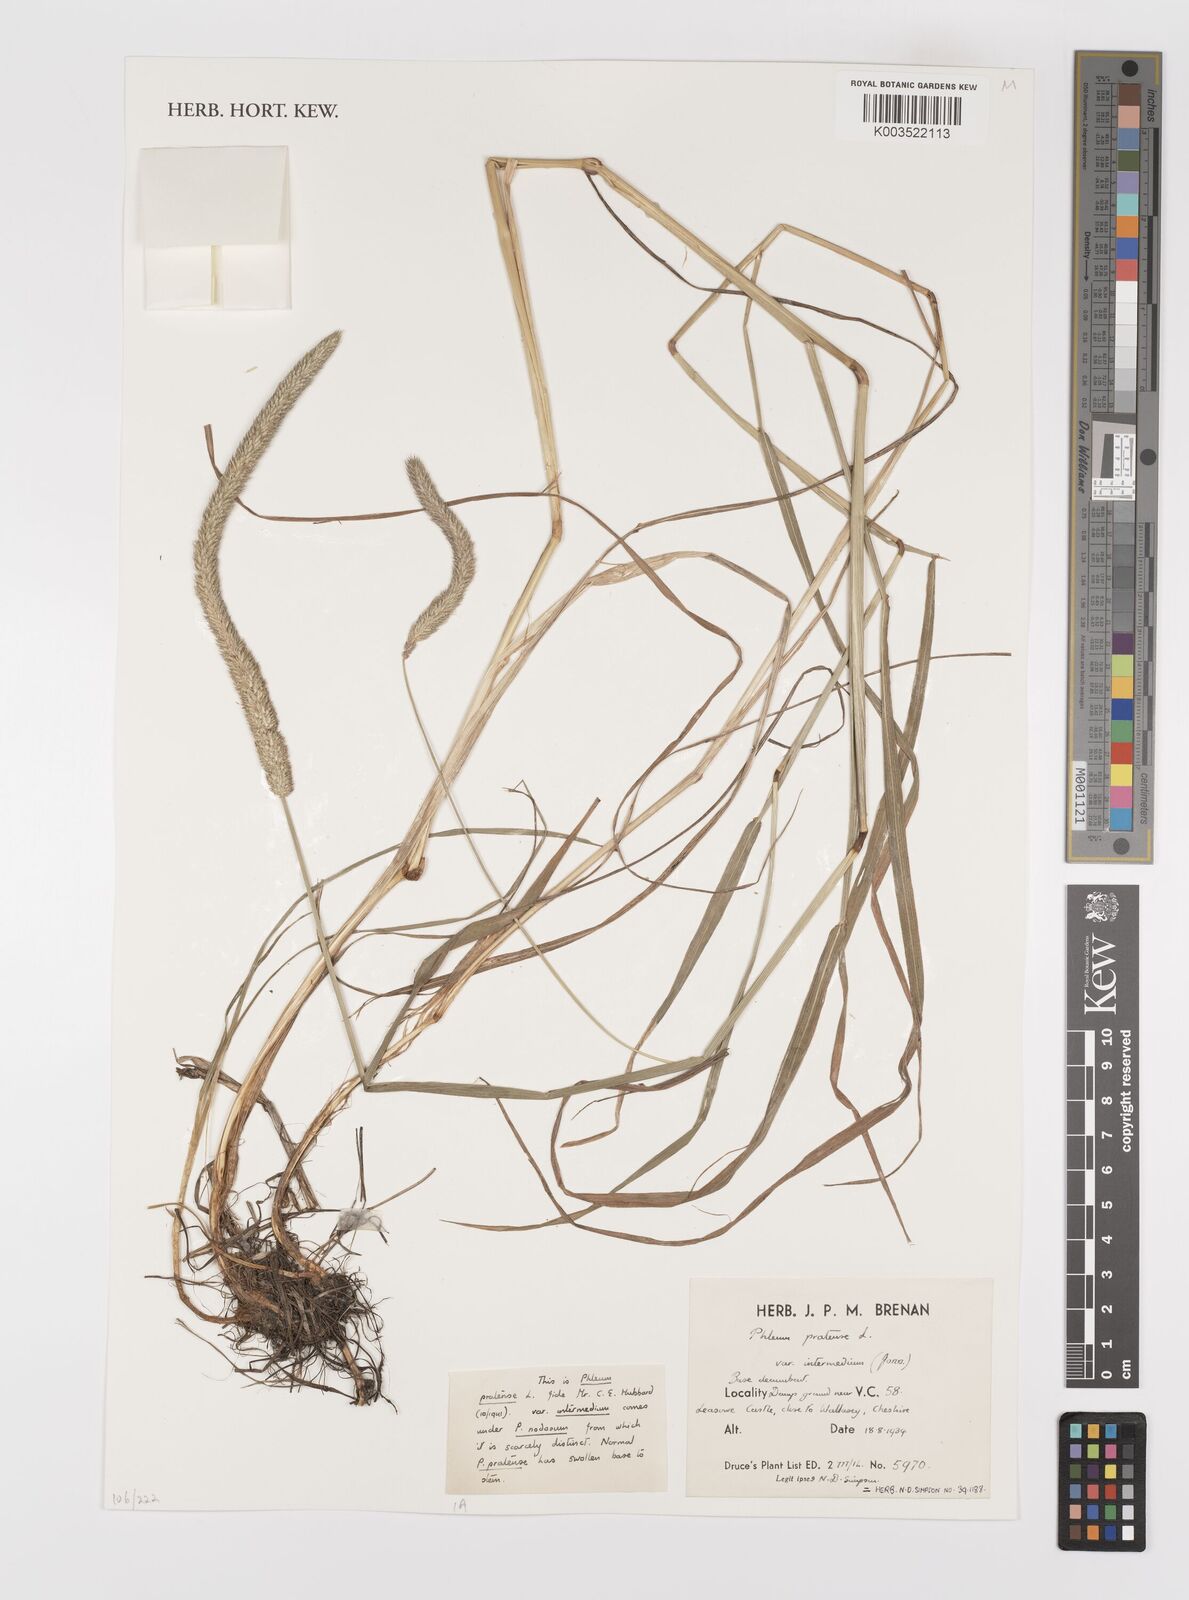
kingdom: Plantae
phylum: Tracheophyta
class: Liliopsida
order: Poales
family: Poaceae
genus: Phleum
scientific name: Phleum pratense
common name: Timothy grass
